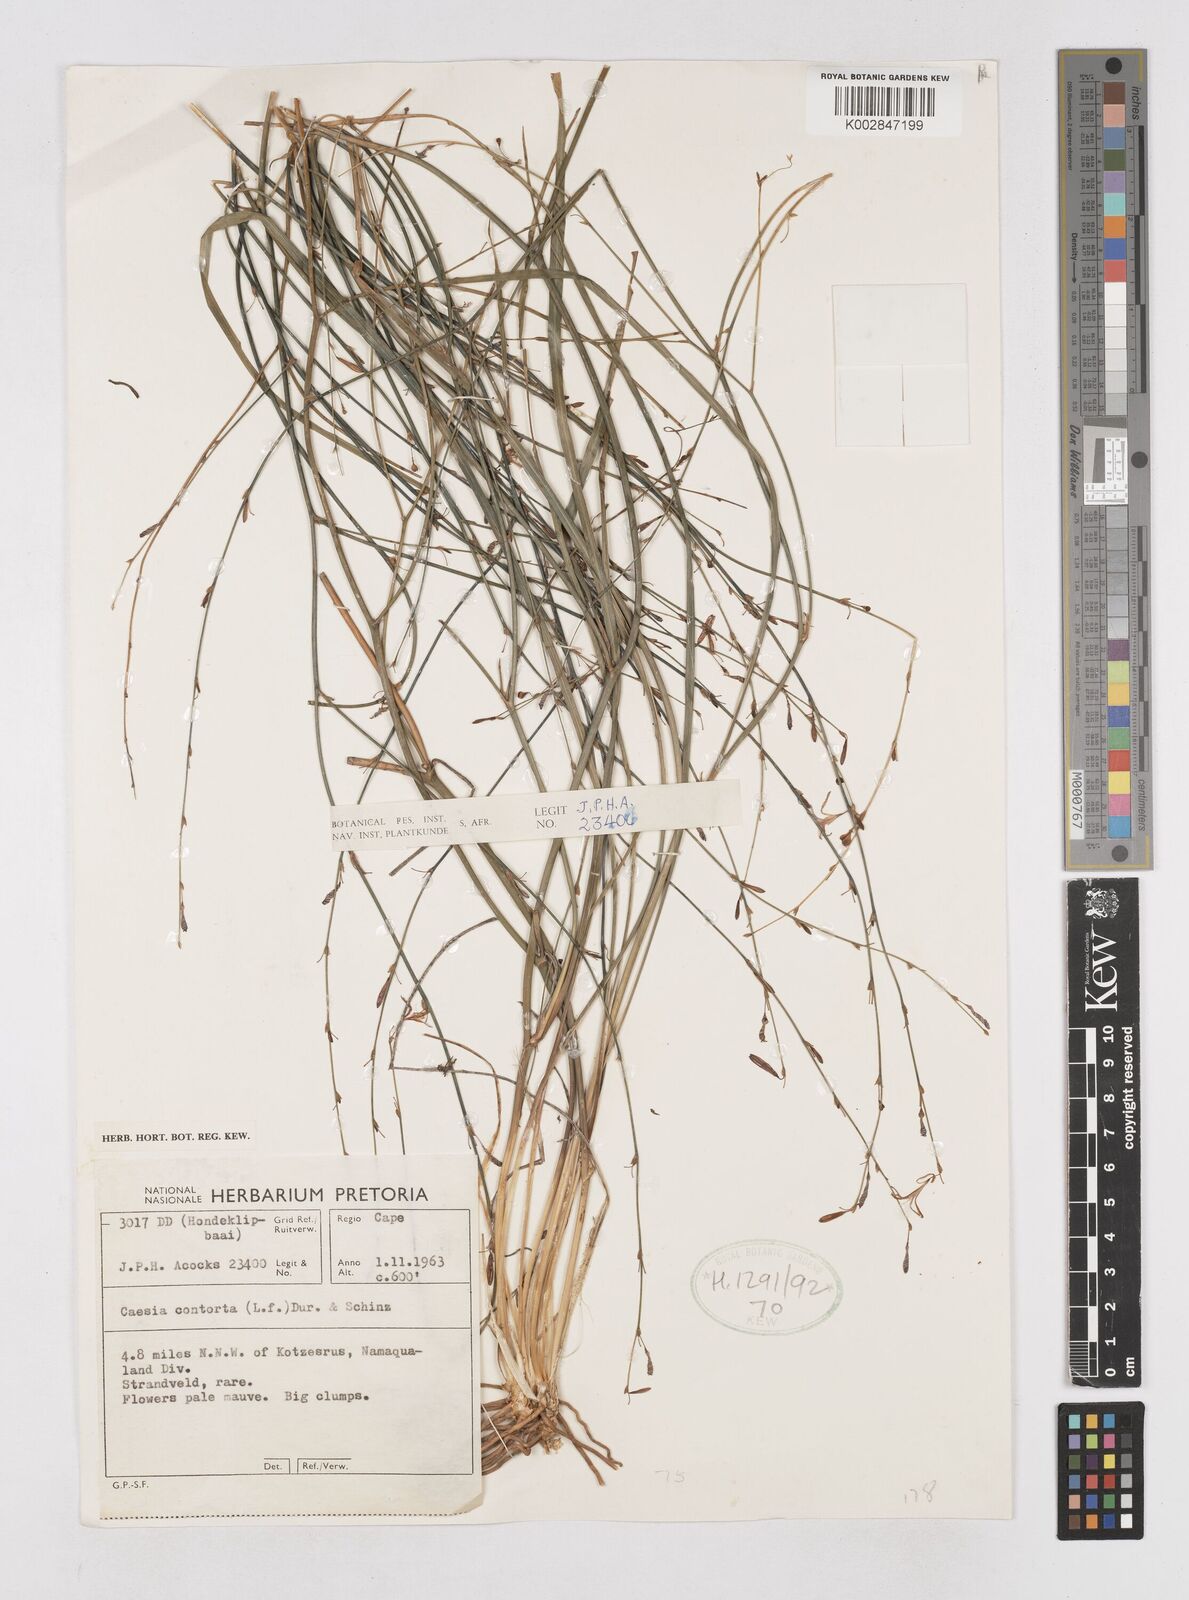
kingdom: Plantae
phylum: Tracheophyta
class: Liliopsida
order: Asparagales
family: Asphodelaceae
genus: Caesia
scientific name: Caesia contorta
